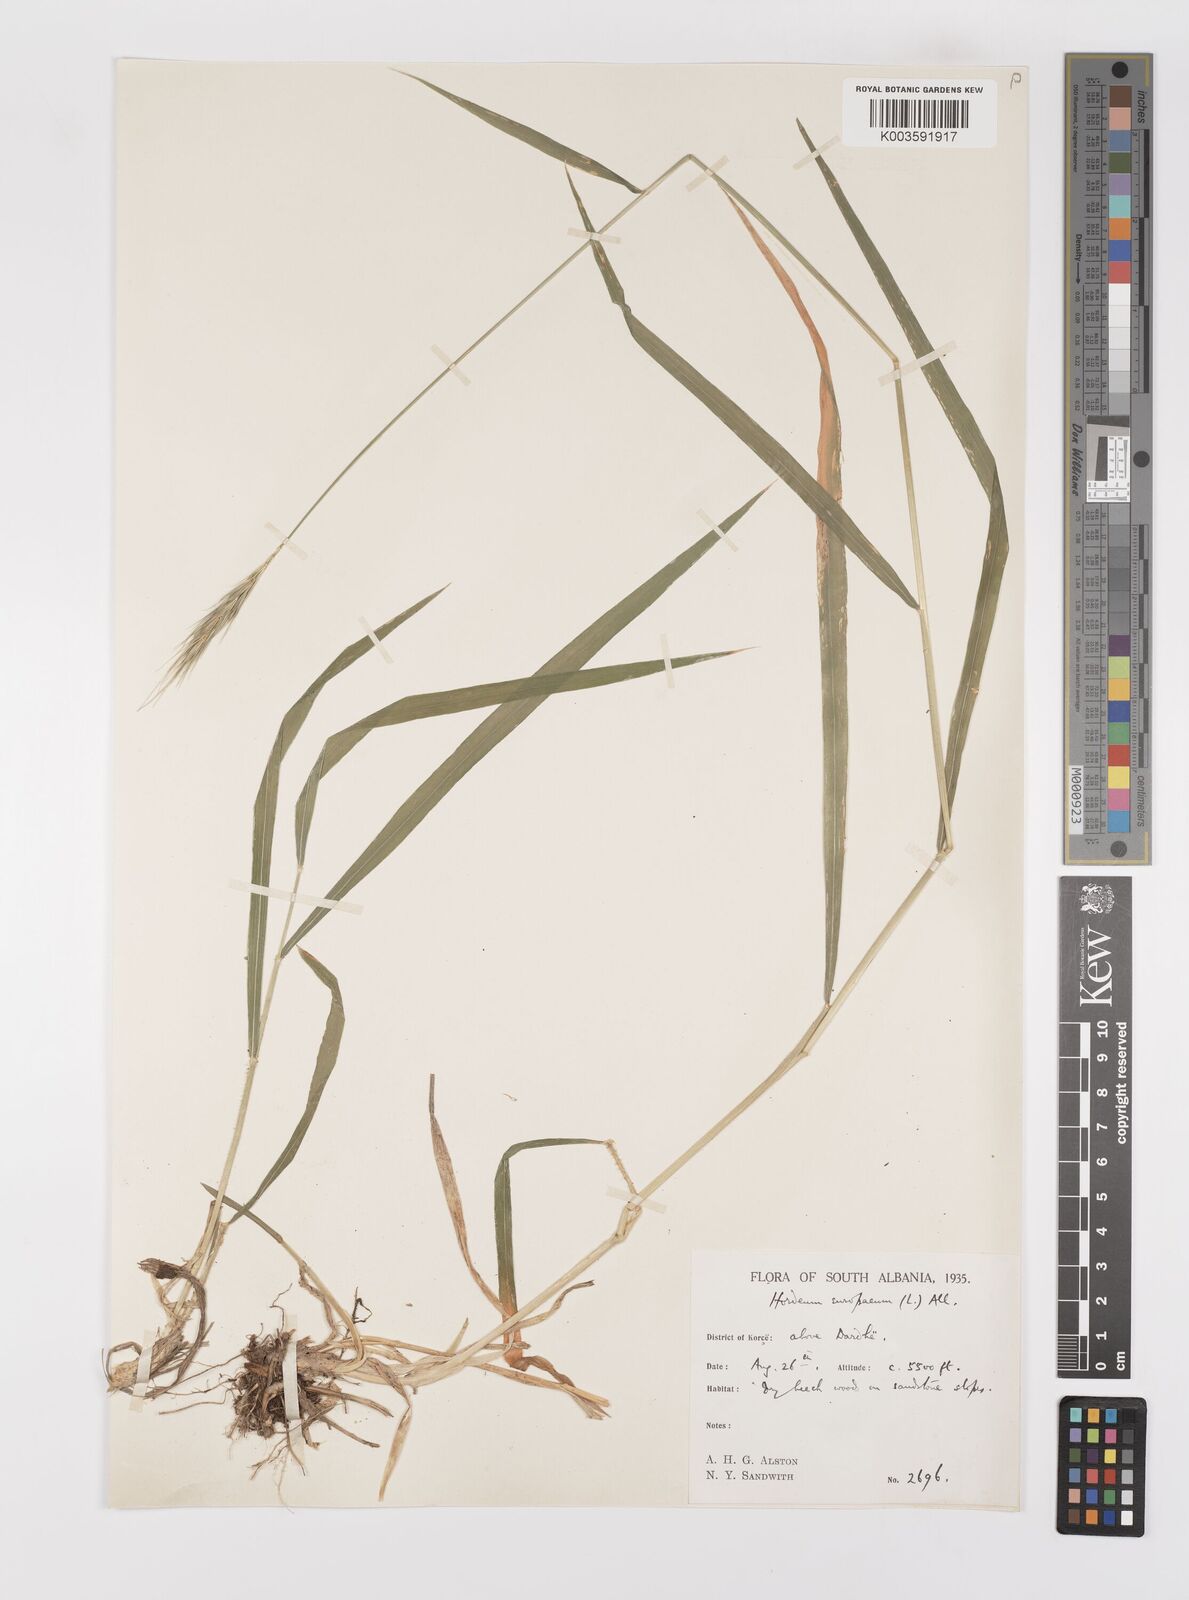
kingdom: Plantae
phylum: Tracheophyta
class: Liliopsida
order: Poales
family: Poaceae
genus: Hordelymus
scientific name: Hordelymus europaeus
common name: Wood-barley
